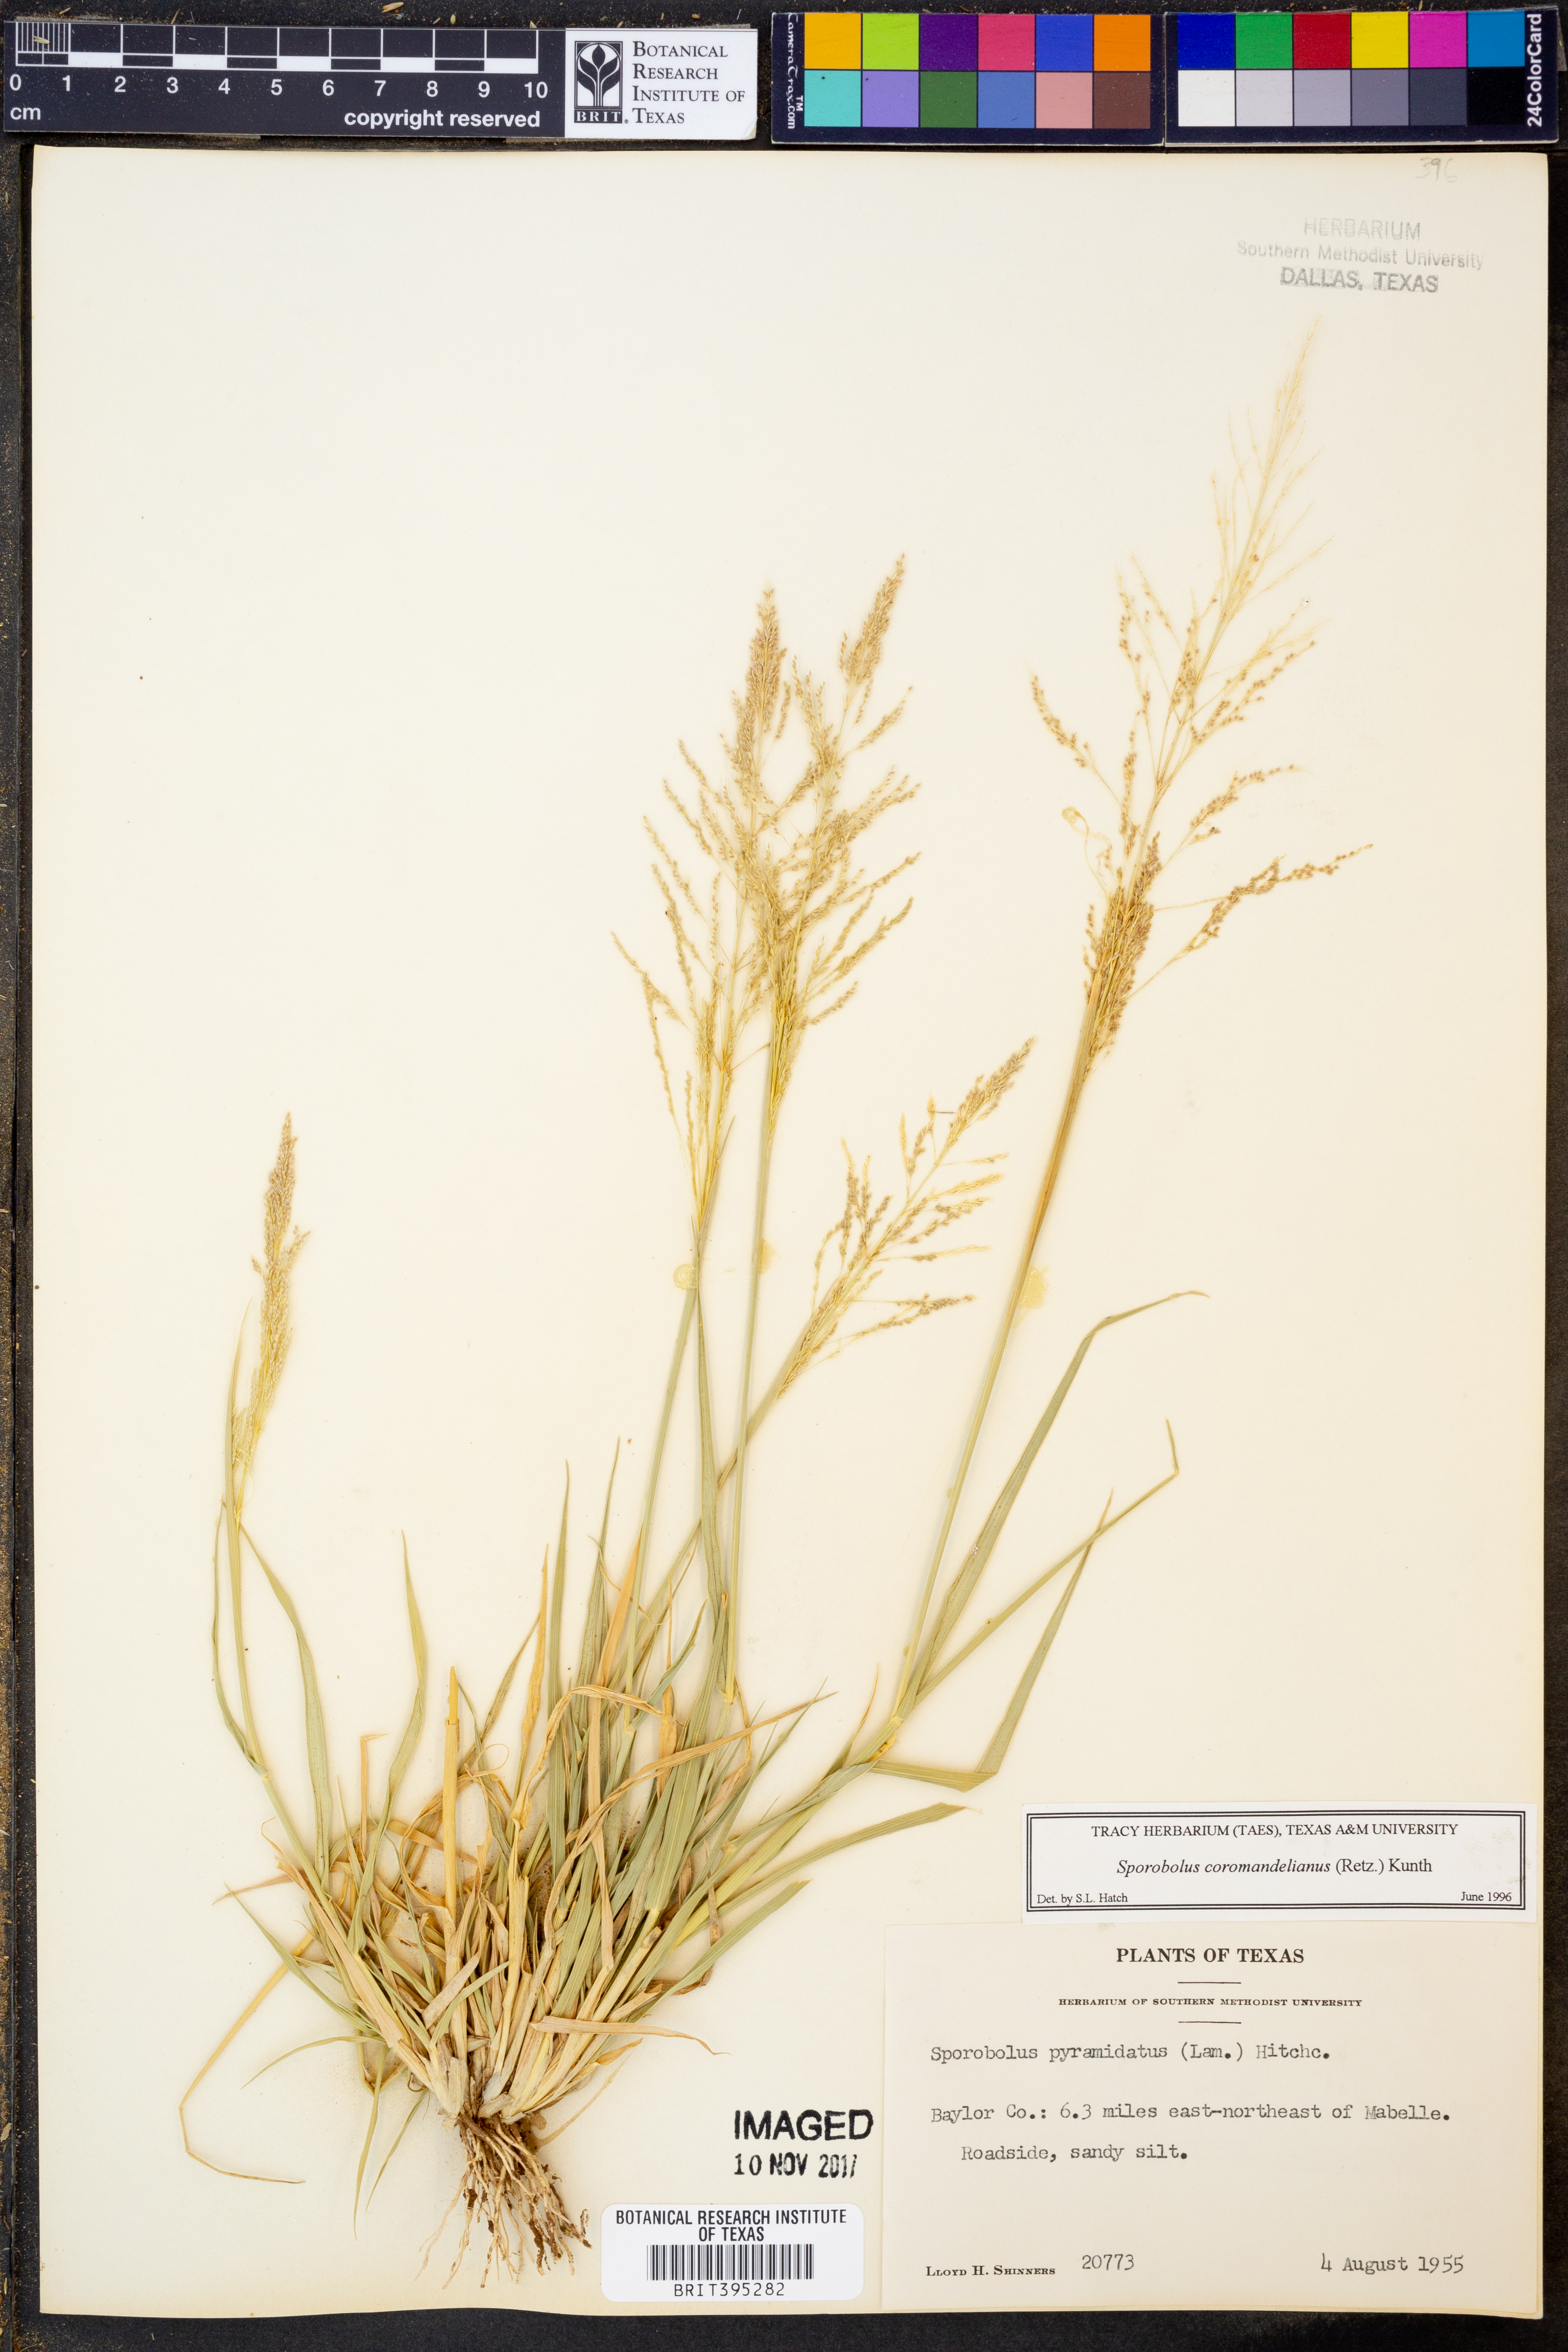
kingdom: Plantae
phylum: Tracheophyta
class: Liliopsida
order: Poales
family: Poaceae
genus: Sporobolus
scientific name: Sporobolus coromandelianus
